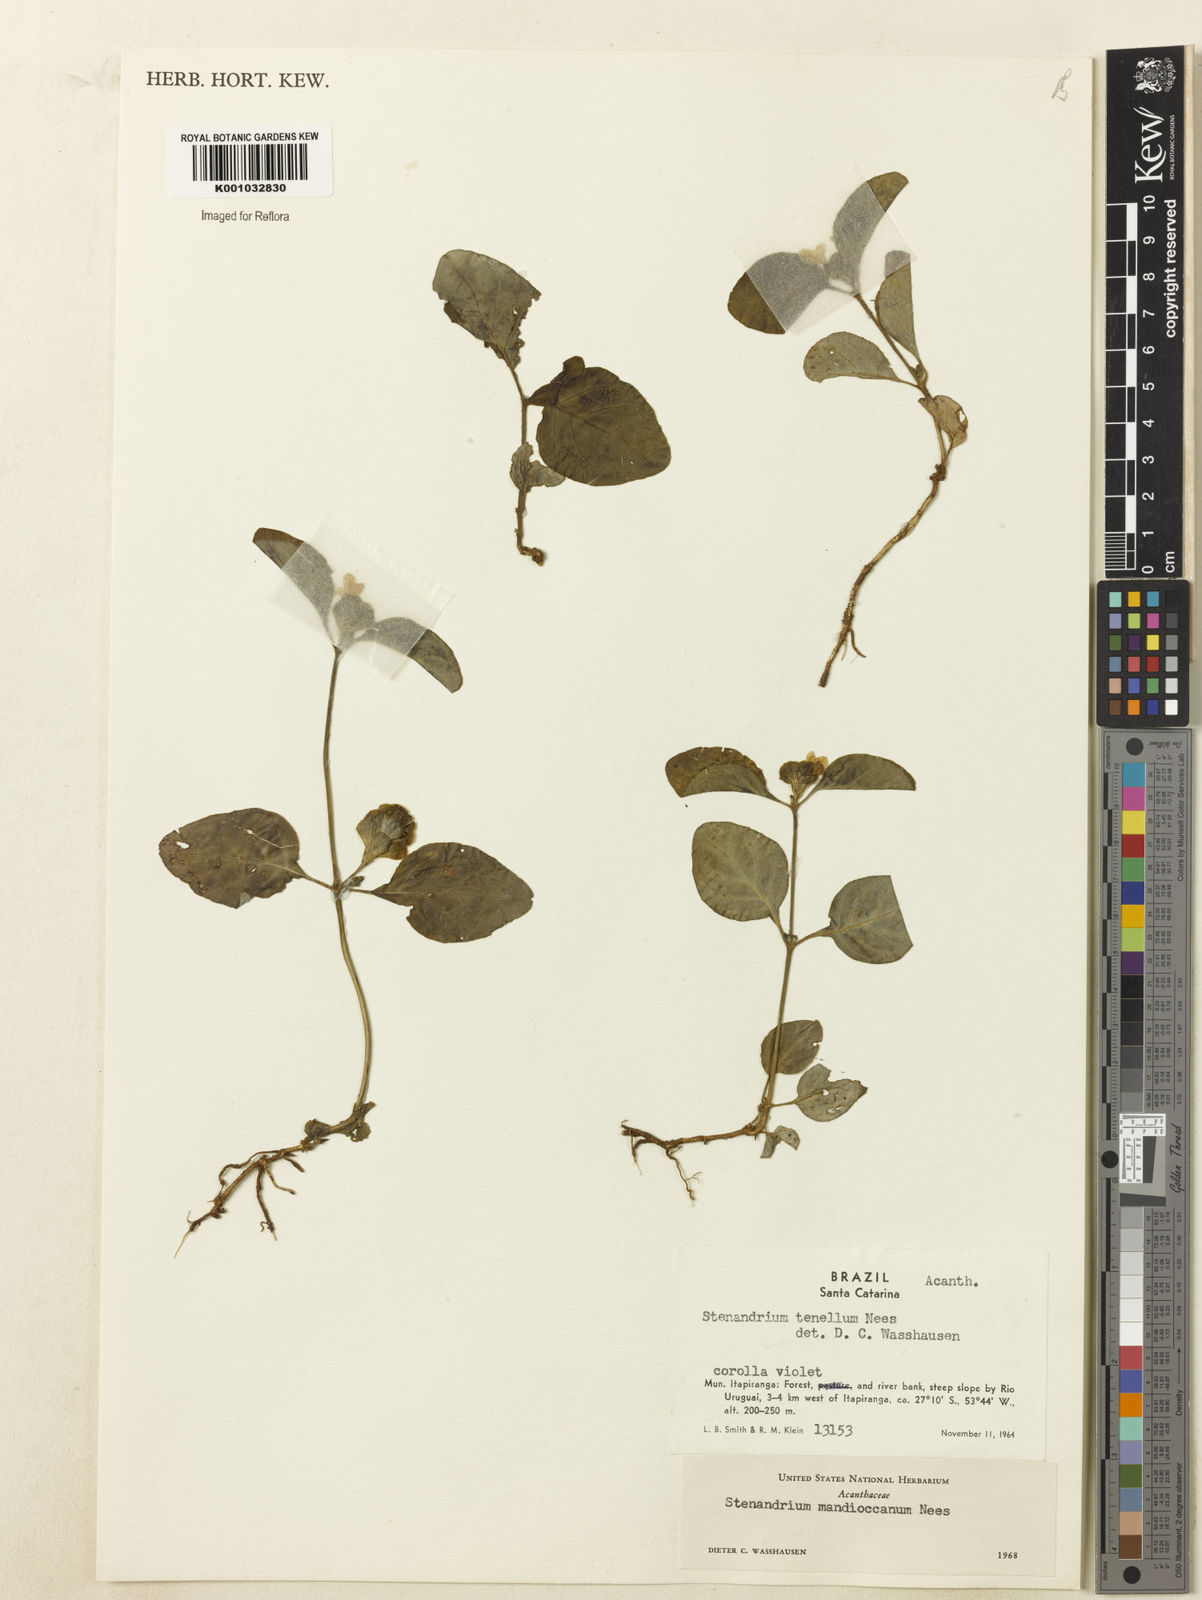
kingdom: Plantae
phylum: Tracheophyta
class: Magnoliopsida
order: Lamiales
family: Acanthaceae
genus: Stenandrium
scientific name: Stenandrium mandioccanum
